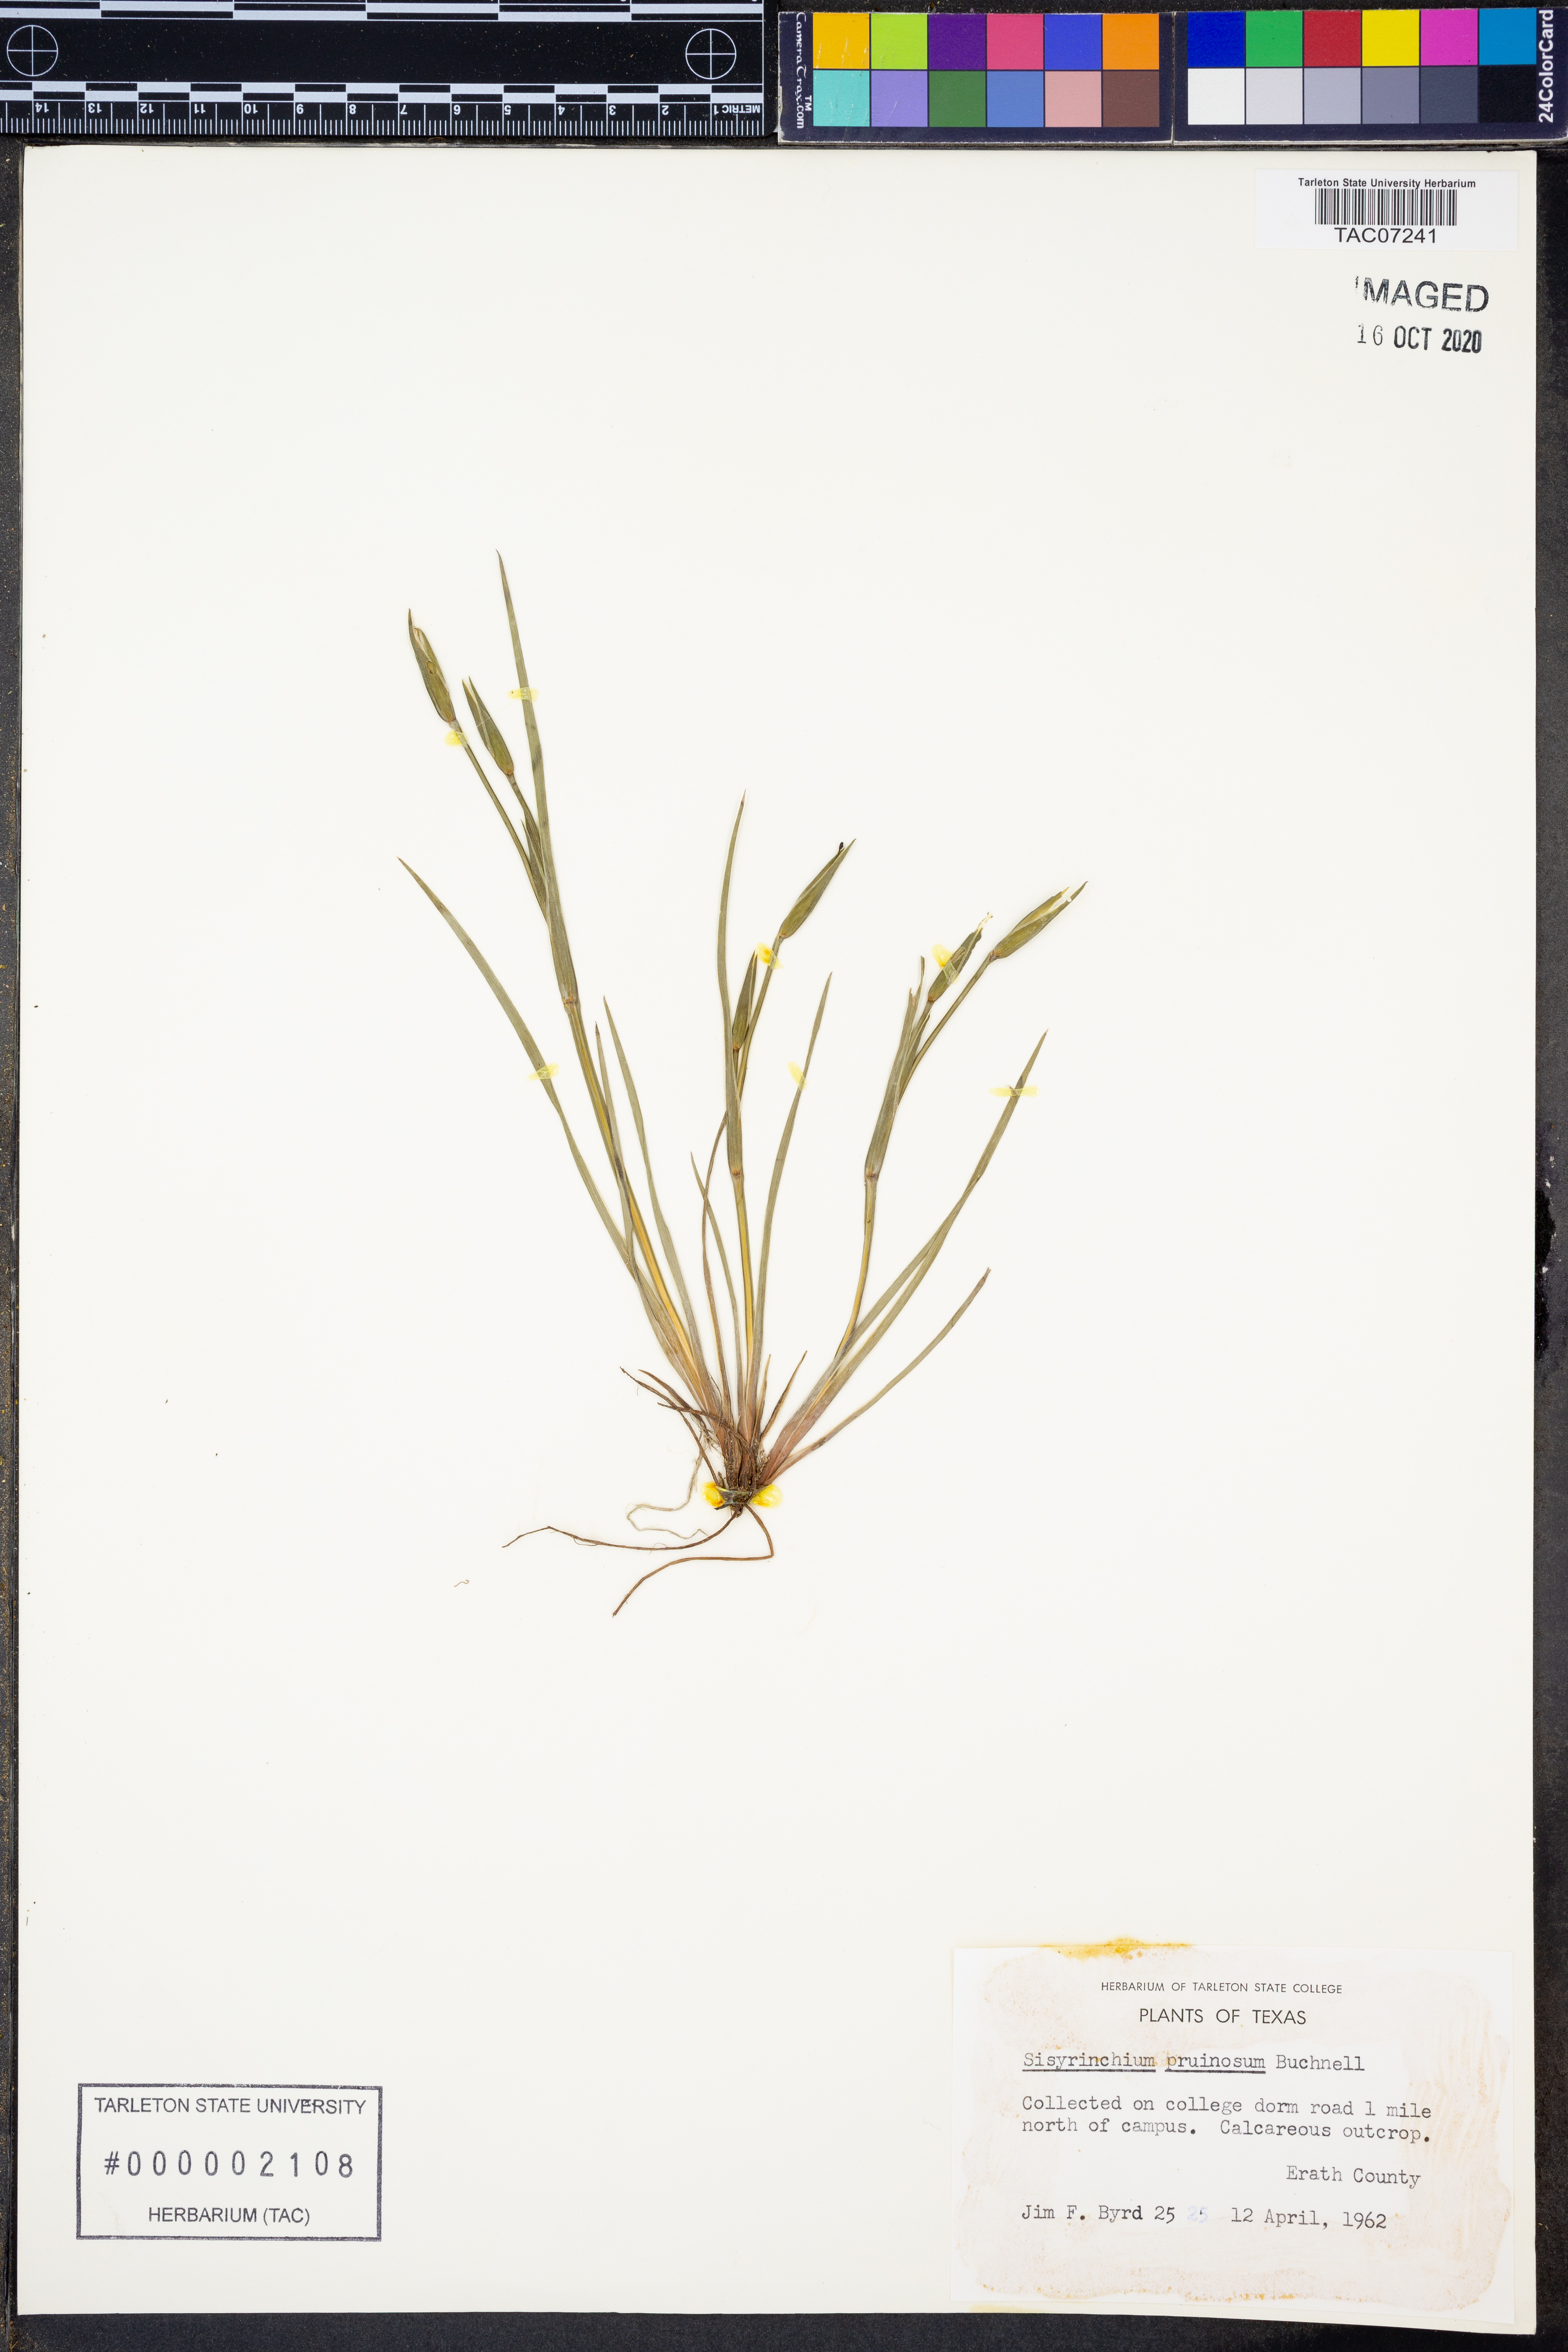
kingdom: Plantae
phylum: Tracheophyta
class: Liliopsida
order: Asparagales
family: Iridaceae
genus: Sisyrinchium
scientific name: Sisyrinchium pruinosum
